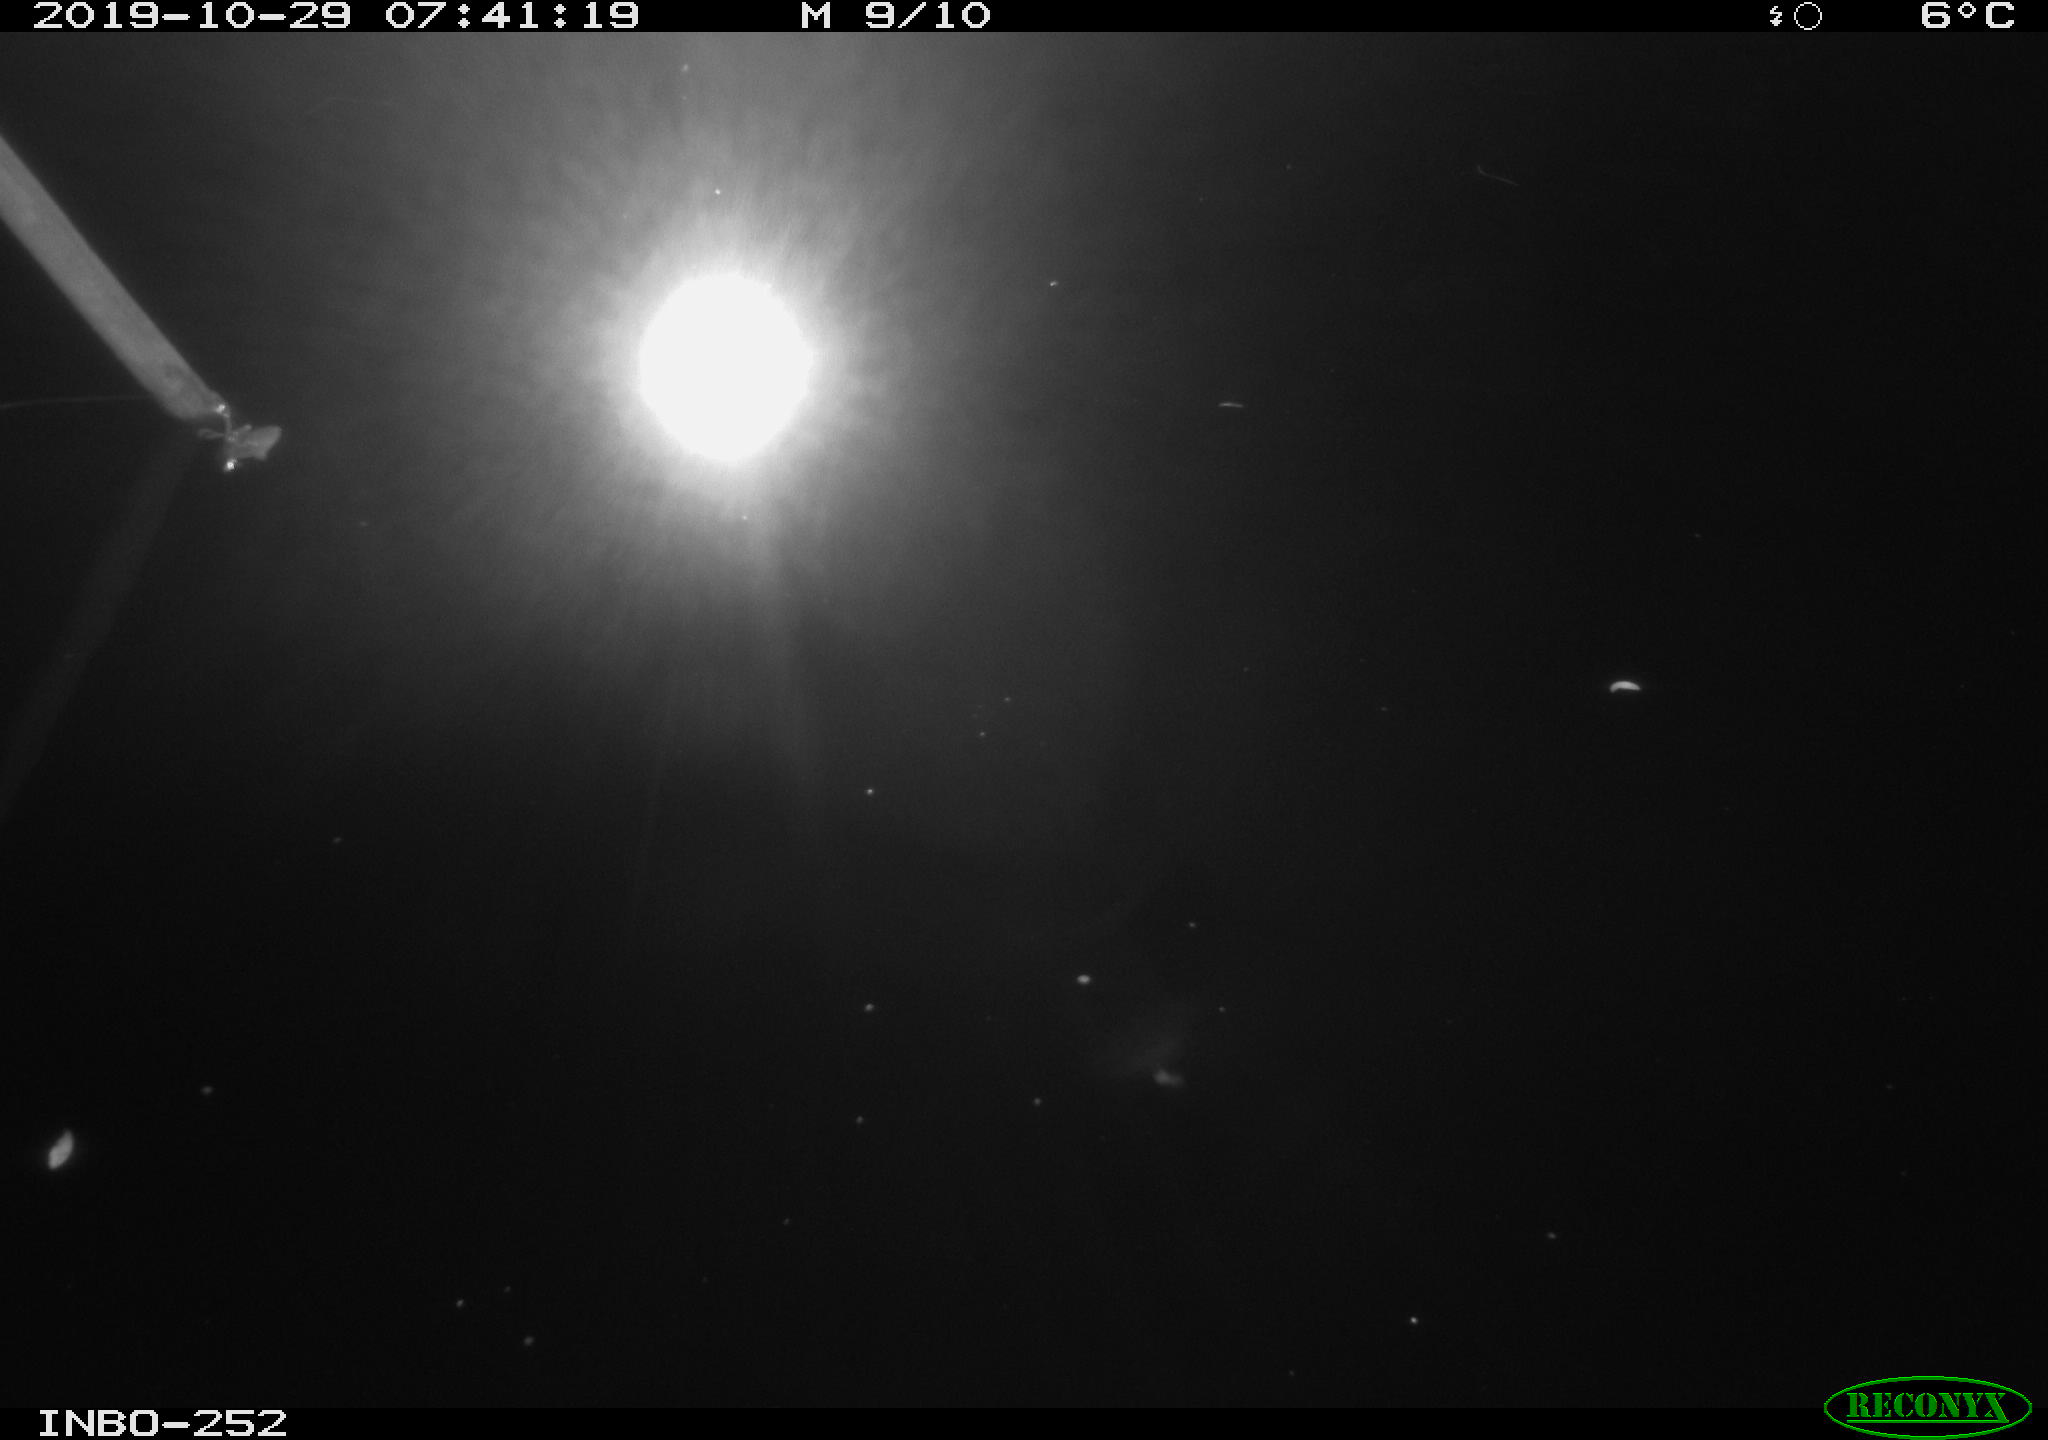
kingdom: Animalia
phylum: Chordata
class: Aves
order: Anseriformes
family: Anatidae
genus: Anas
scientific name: Anas platyrhynchos
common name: Mallard
